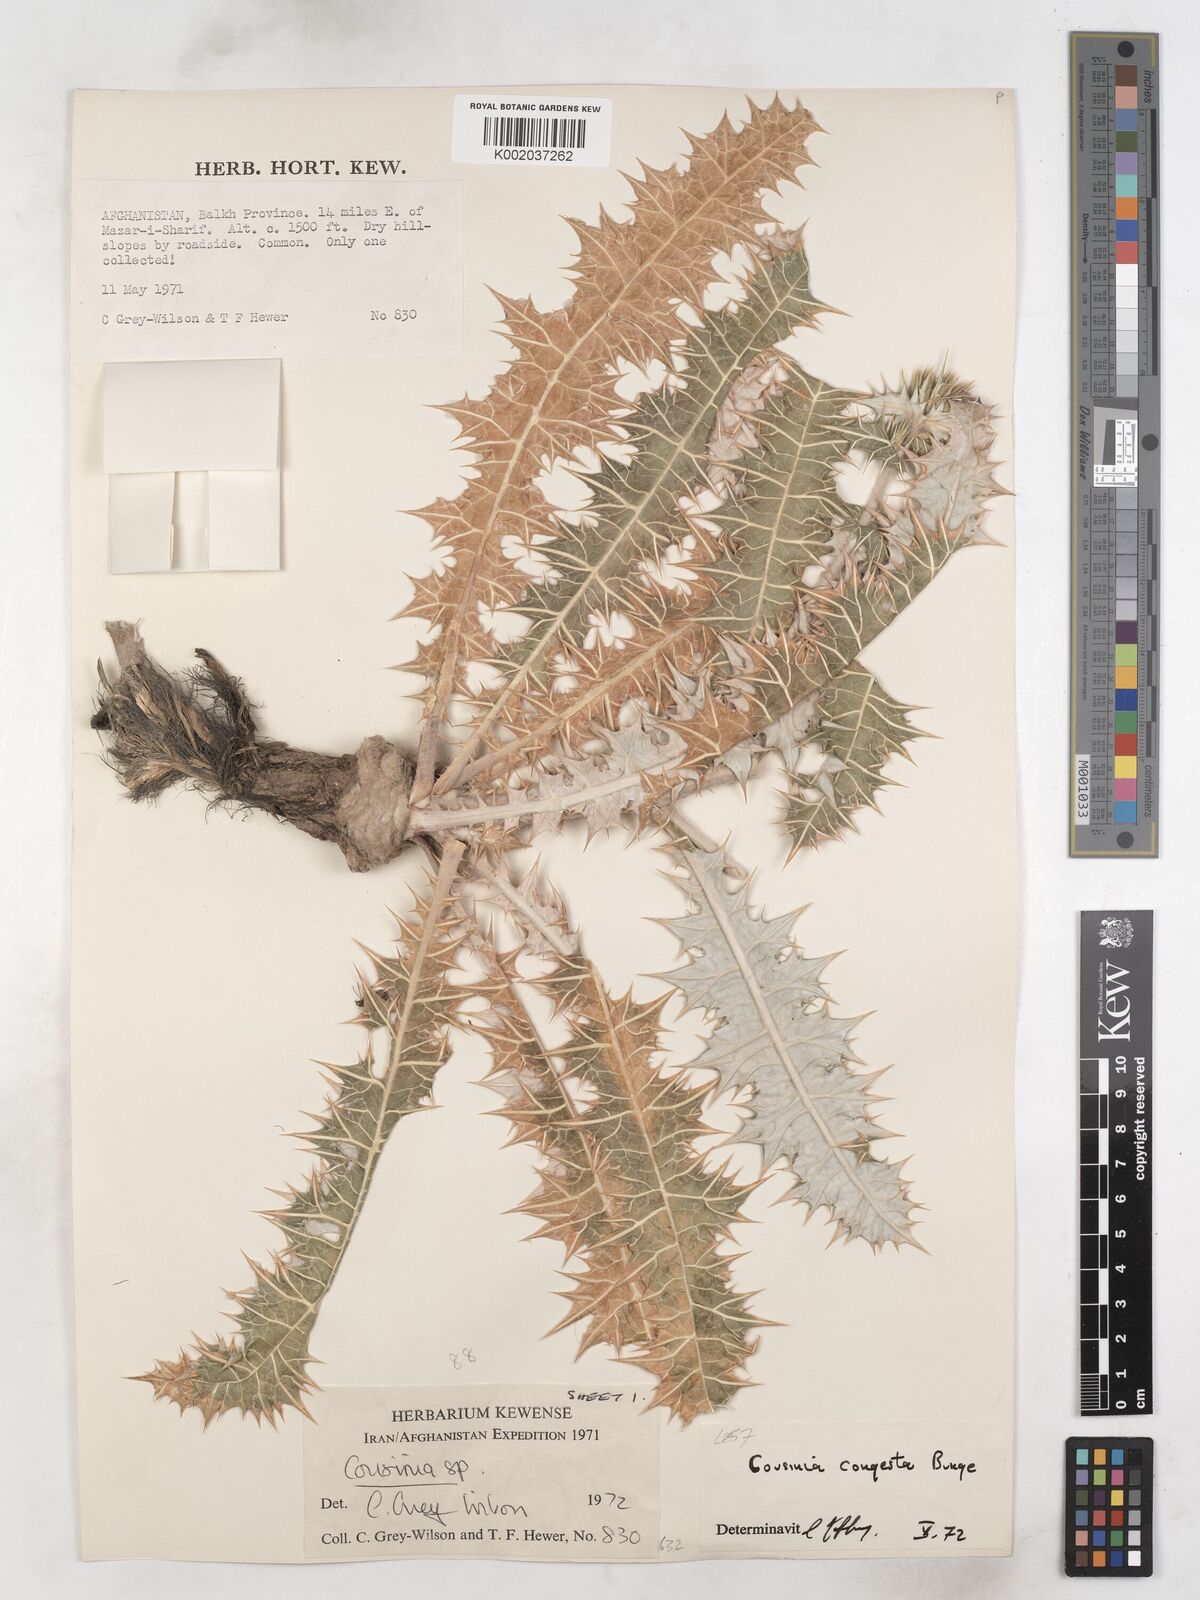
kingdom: Plantae
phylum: Tracheophyta
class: Magnoliopsida
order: Asterales
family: Asteraceae
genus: Cousinia
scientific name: Cousinia congesta
